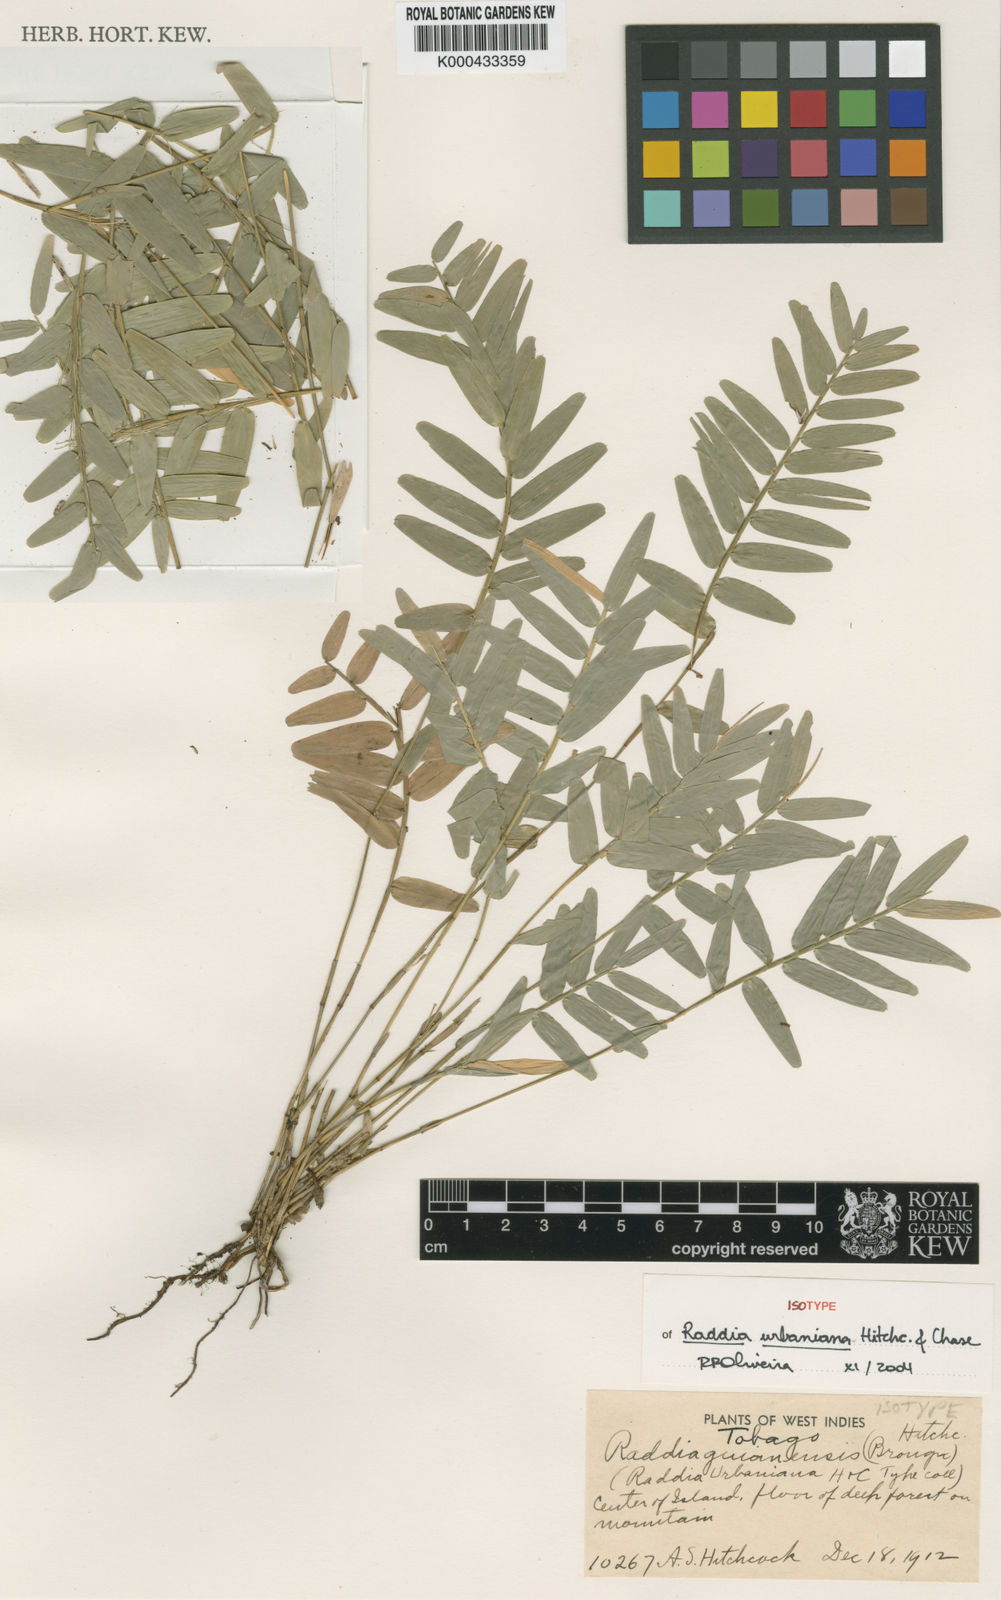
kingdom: Plantae
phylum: Tracheophyta
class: Liliopsida
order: Poales
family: Poaceae
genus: Raddia
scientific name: Raddia guianensis
